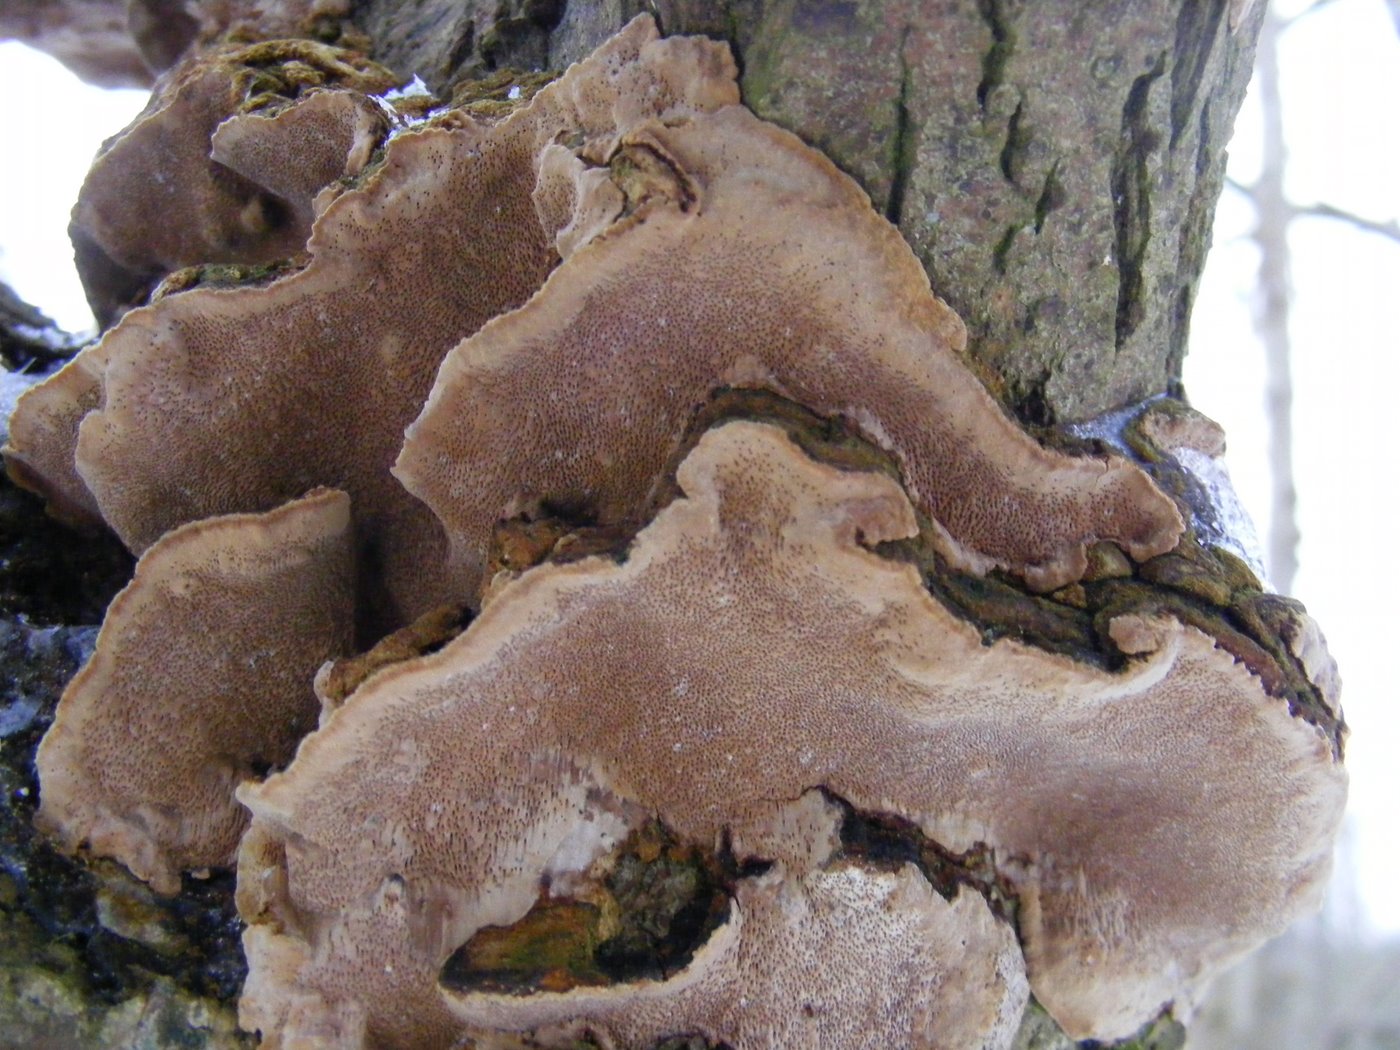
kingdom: Fungi
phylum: Basidiomycota
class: Agaricomycetes
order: Hymenochaetales
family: Hymenochaetaceae
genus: Phellinopsis
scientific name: Phellinopsis conchata
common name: pile-ildporesvamp
